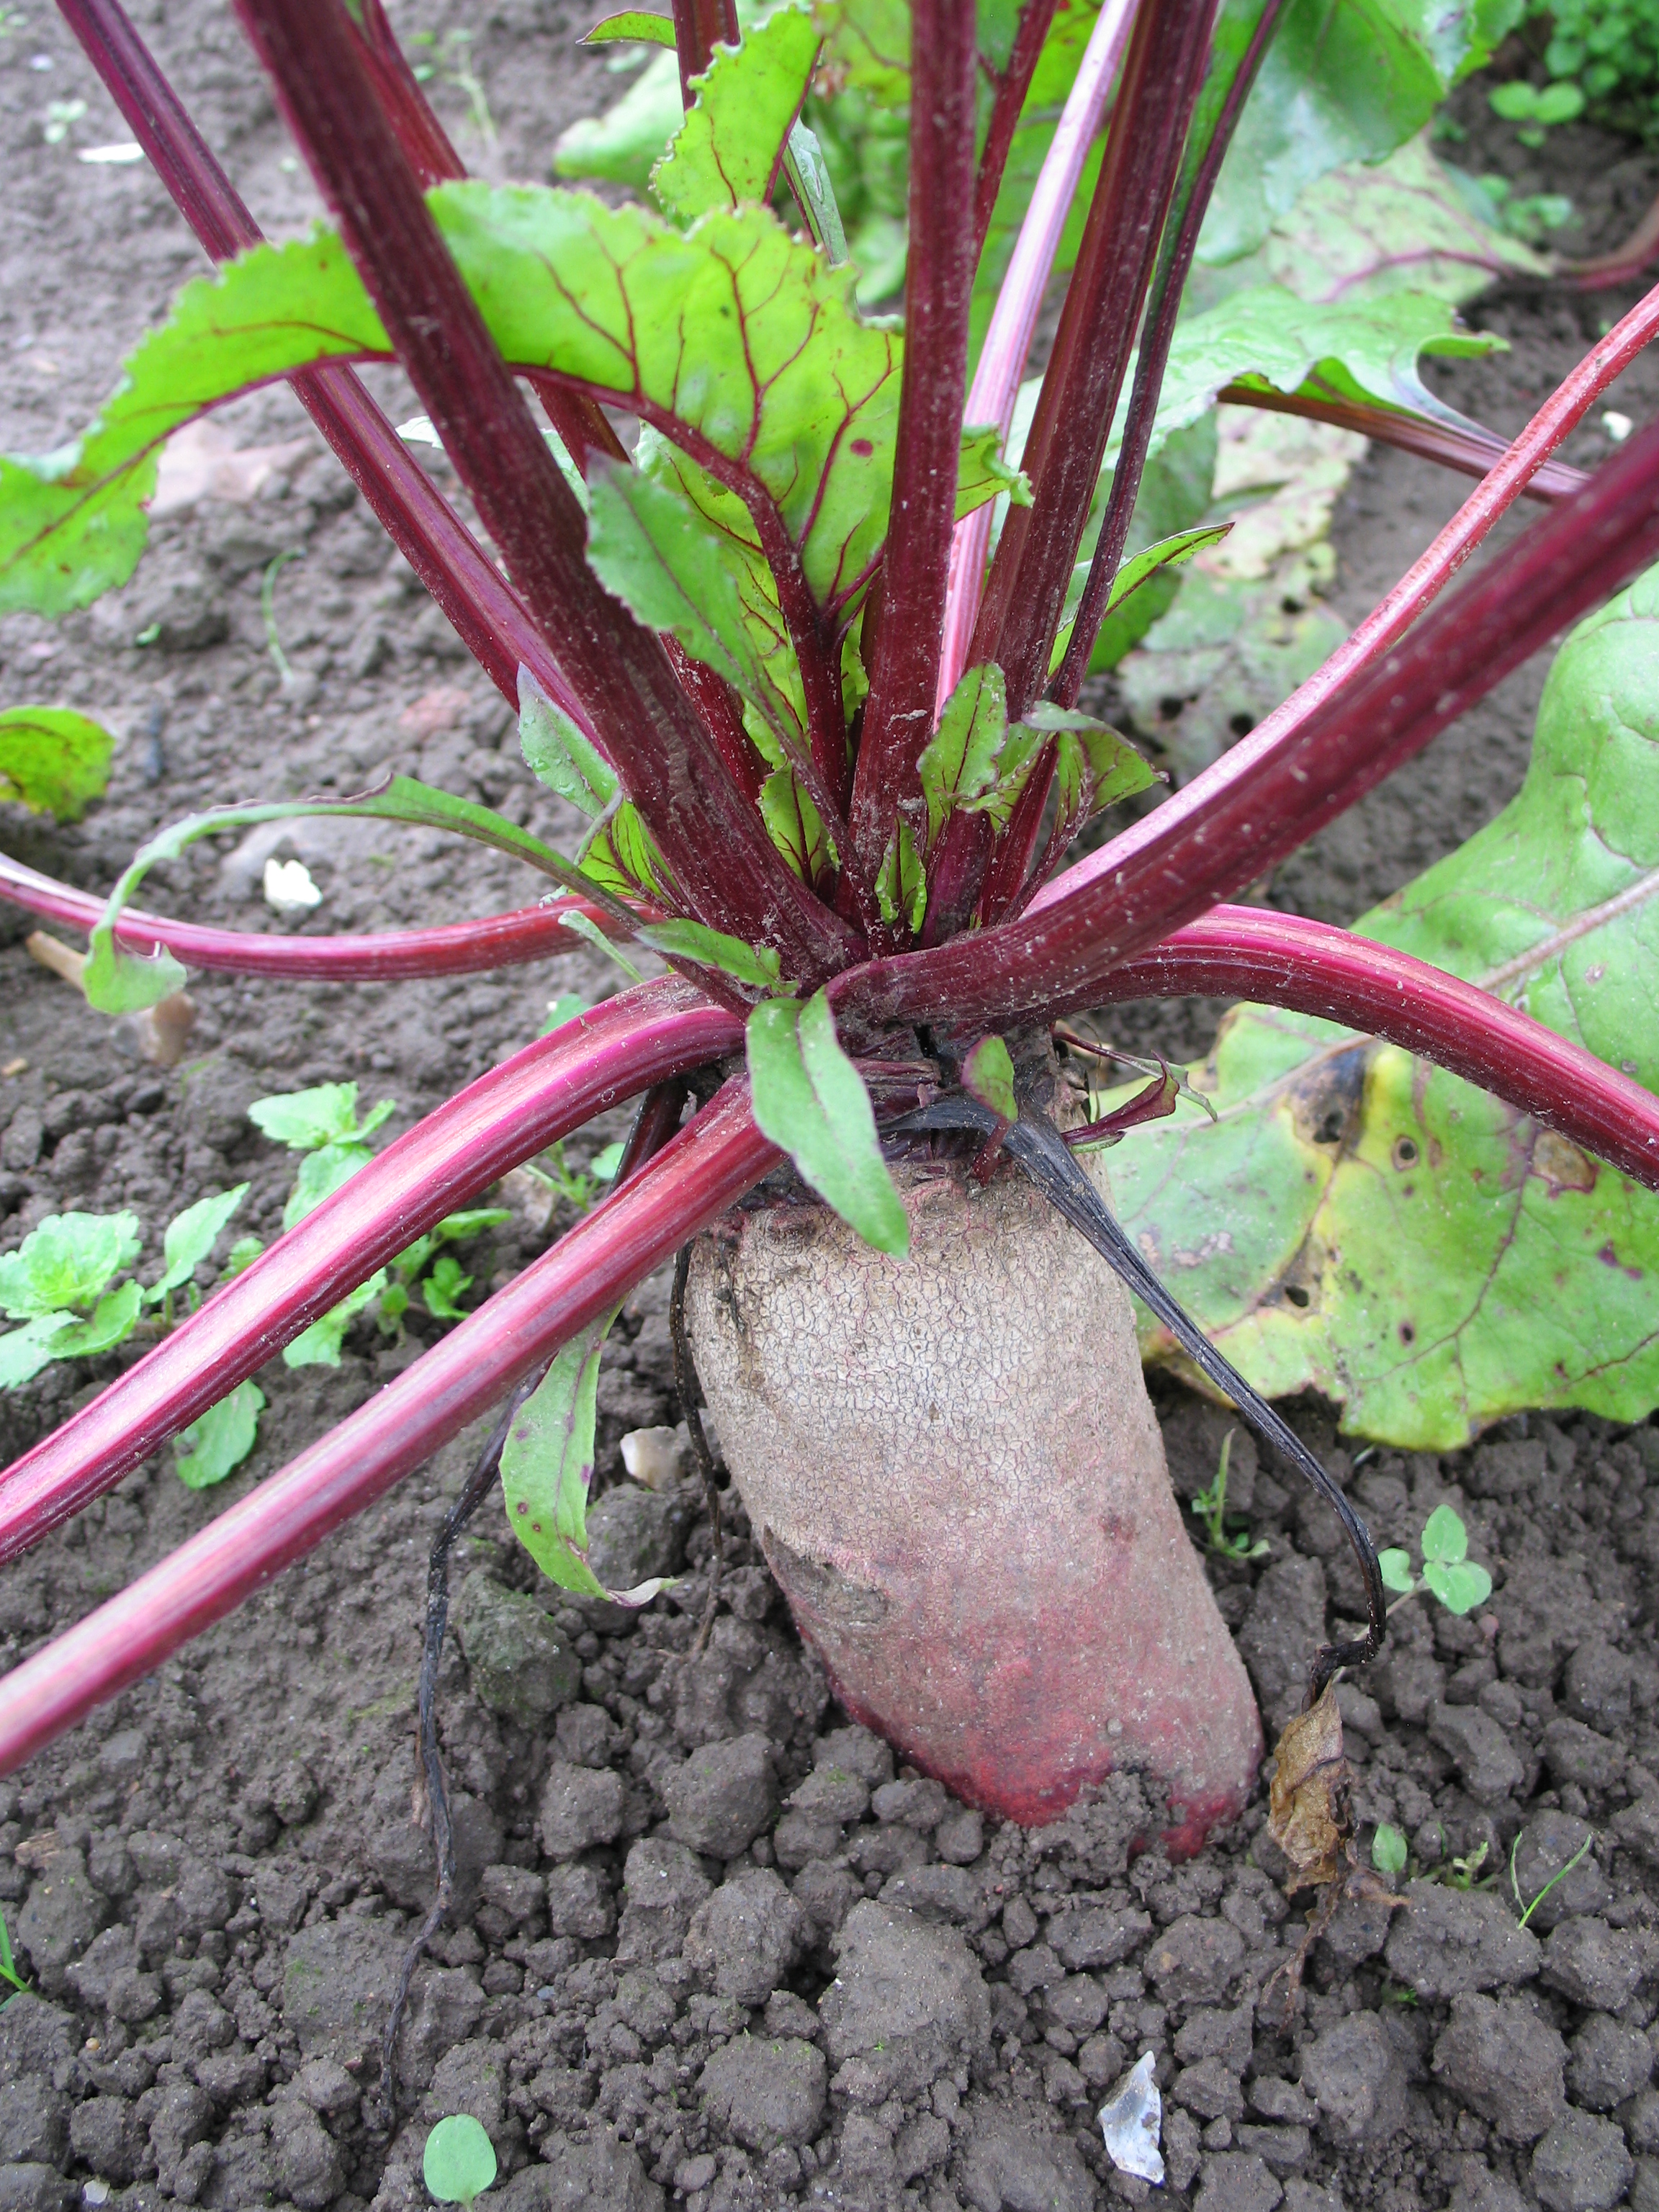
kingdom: Plantae
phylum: Tracheophyta
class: Magnoliopsida
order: Caryophyllales
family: Amaranthaceae
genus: Beta
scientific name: Beta vulgaris
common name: Beet
